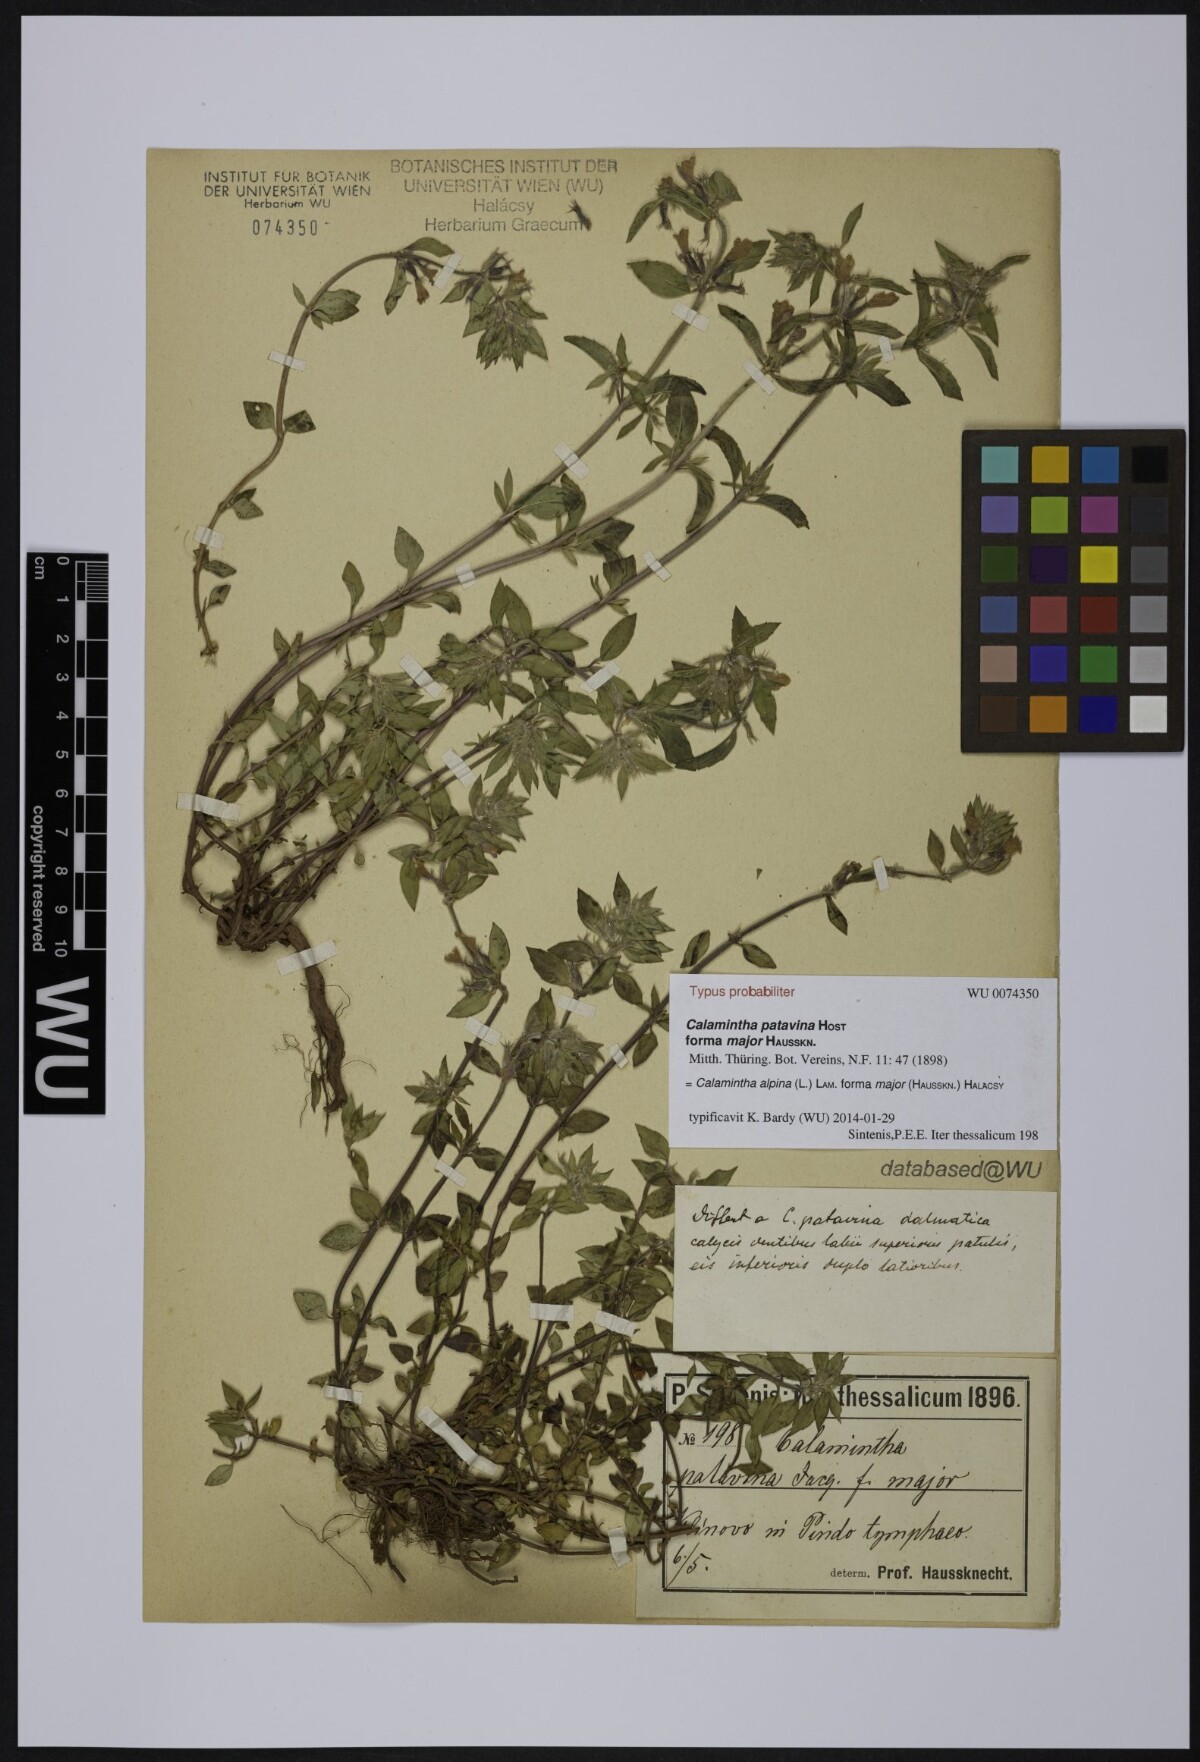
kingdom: Plantae
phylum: Tracheophyta
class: Magnoliopsida
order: Lamiales
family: Lamiaceae
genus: Clinopodium
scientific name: Clinopodium alpinum
